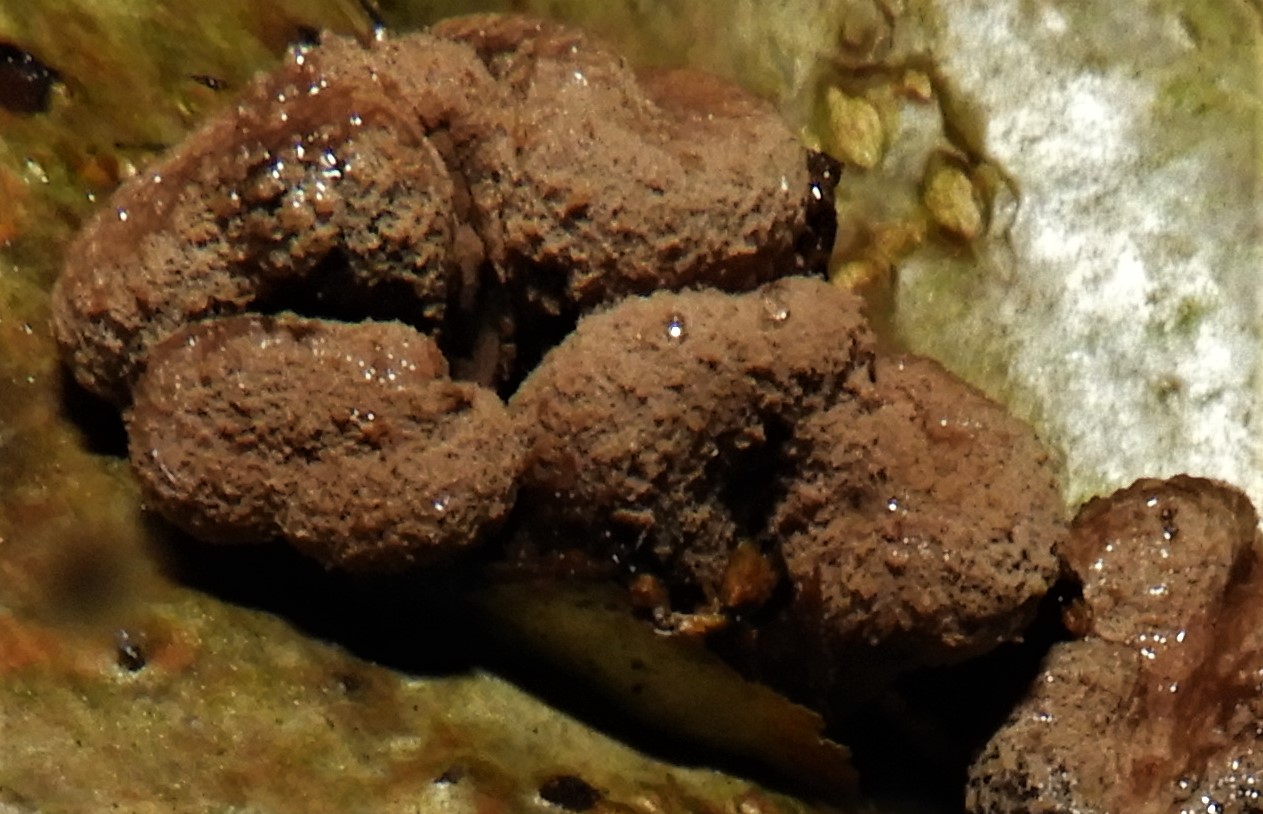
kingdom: Fungi
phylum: Ascomycota
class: Leotiomycetes
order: Helotiales
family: Cenangiaceae
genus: Encoelia
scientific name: Encoelia furfuracea
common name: hassel-læderskive
